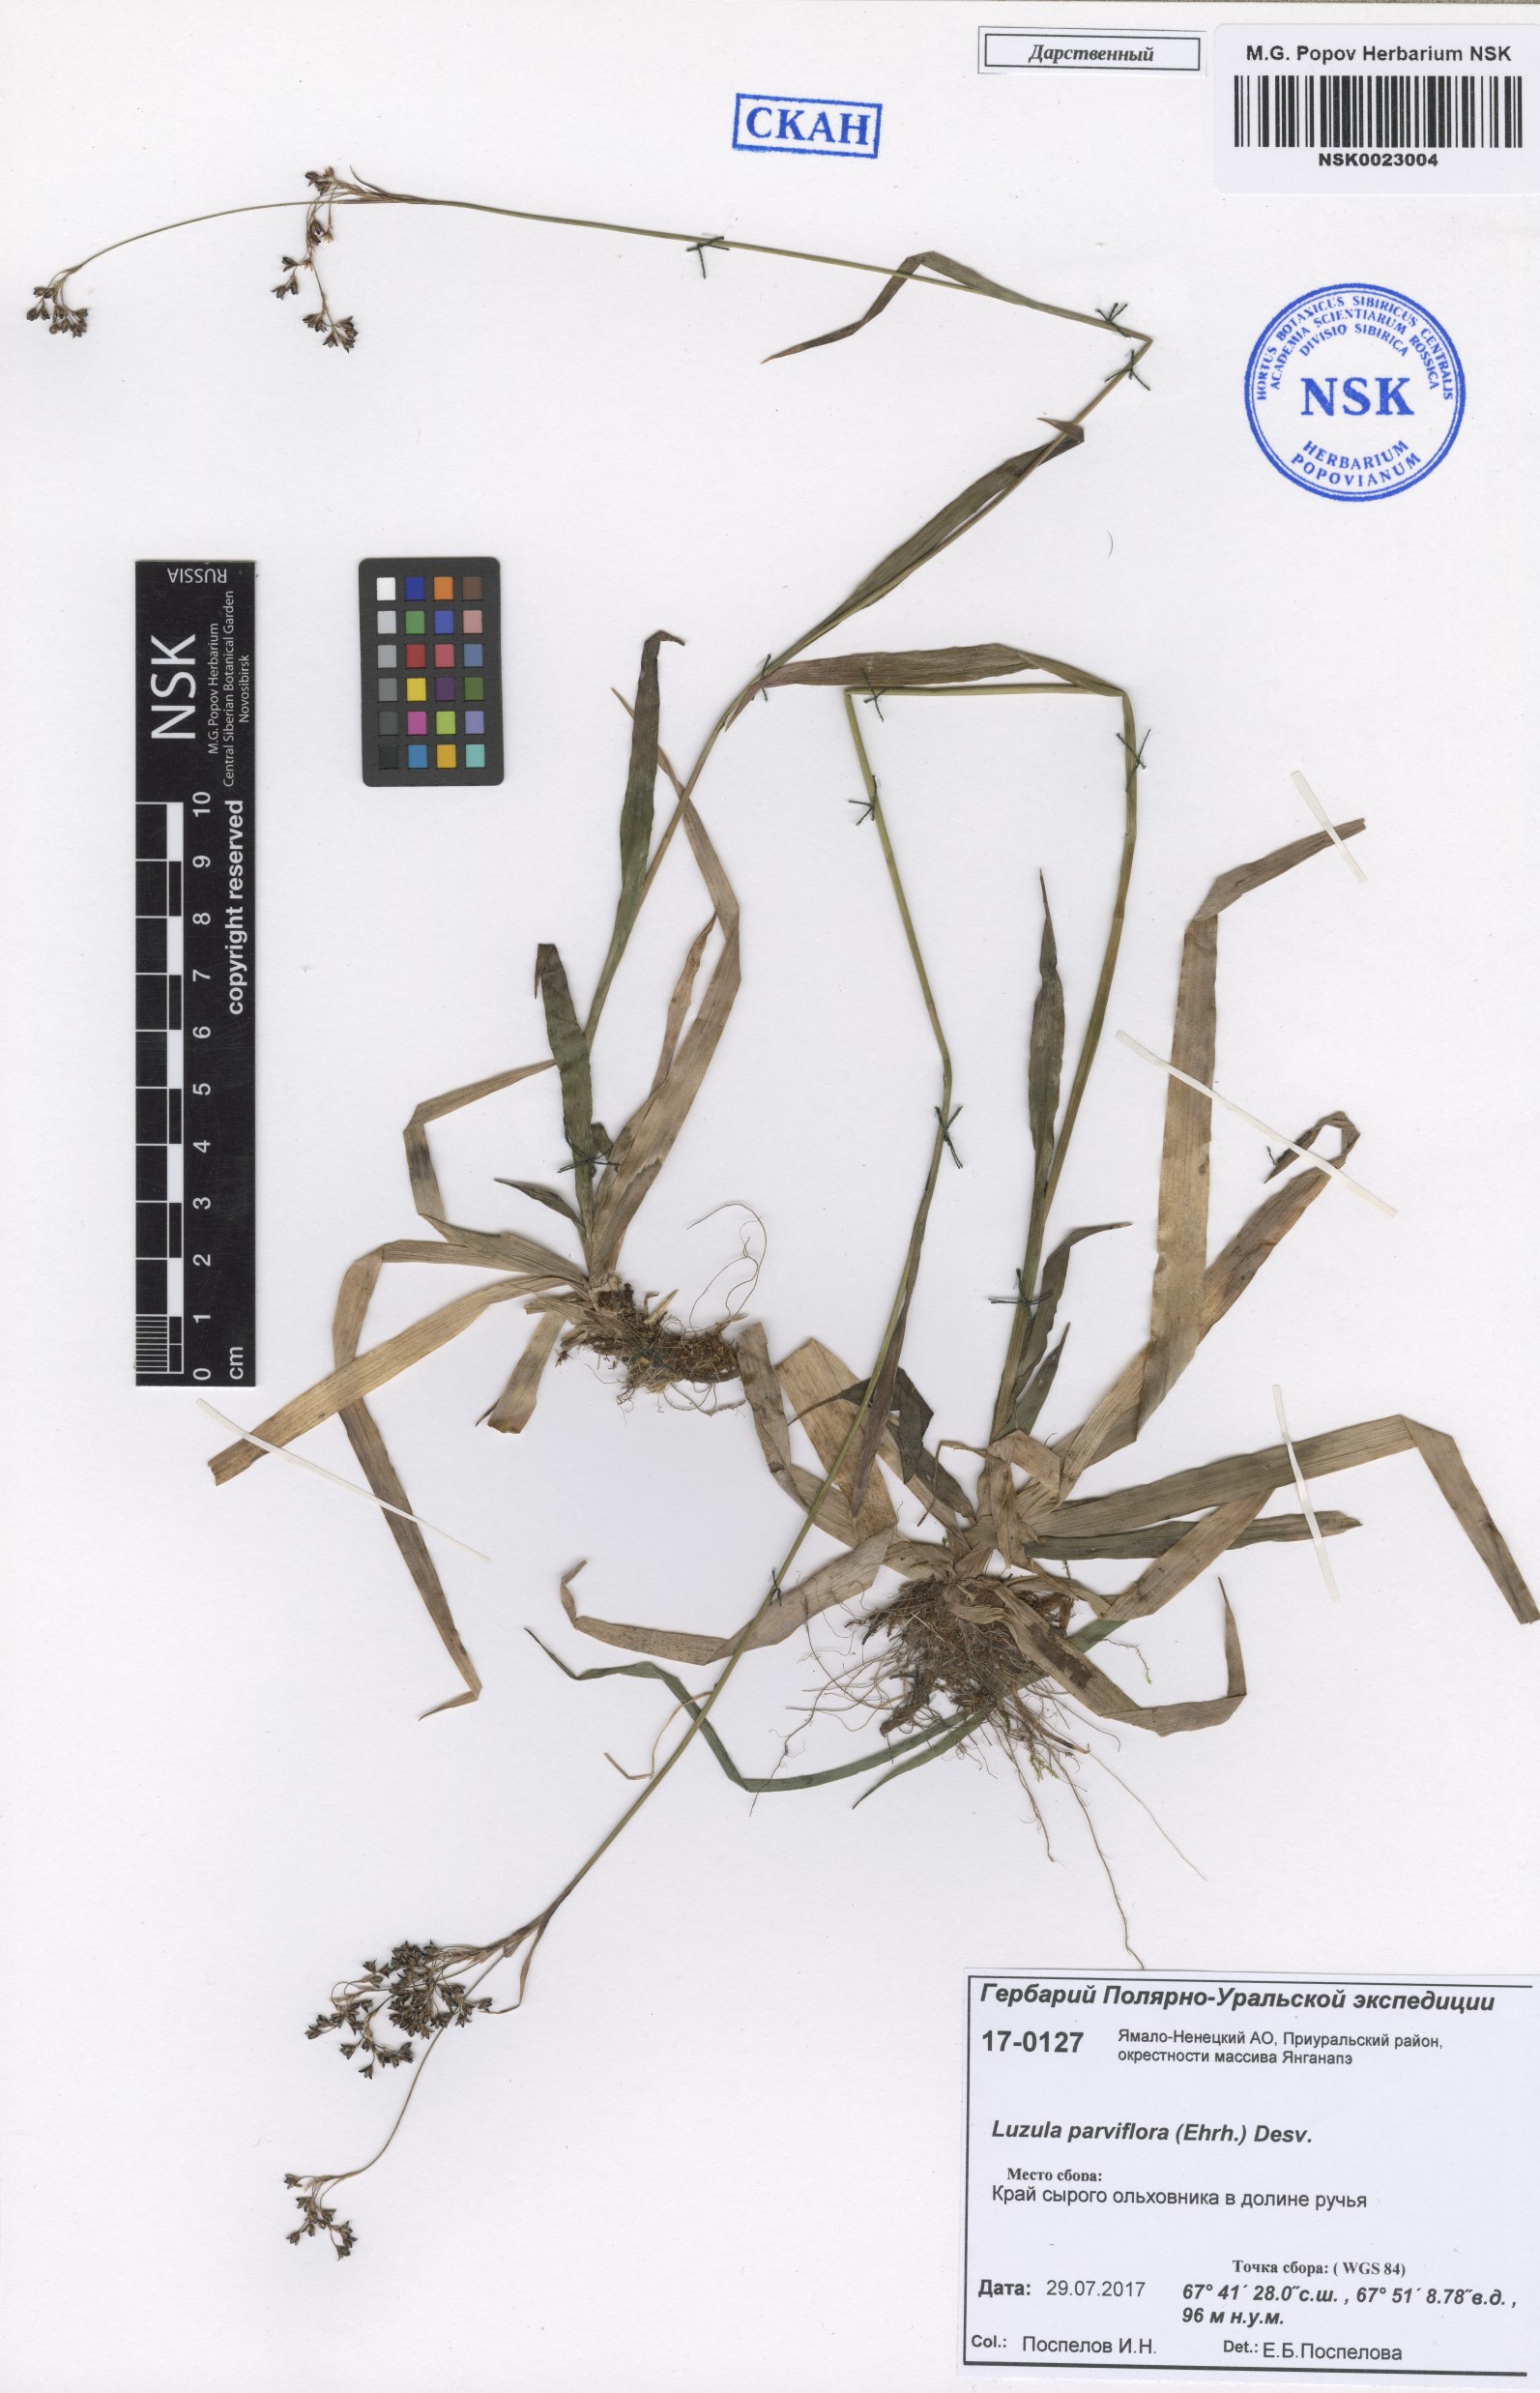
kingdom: Plantae
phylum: Tracheophyta
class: Liliopsida
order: Poales
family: Juncaceae
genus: Luzula
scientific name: Luzula parviflora
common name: Millet woodrush
